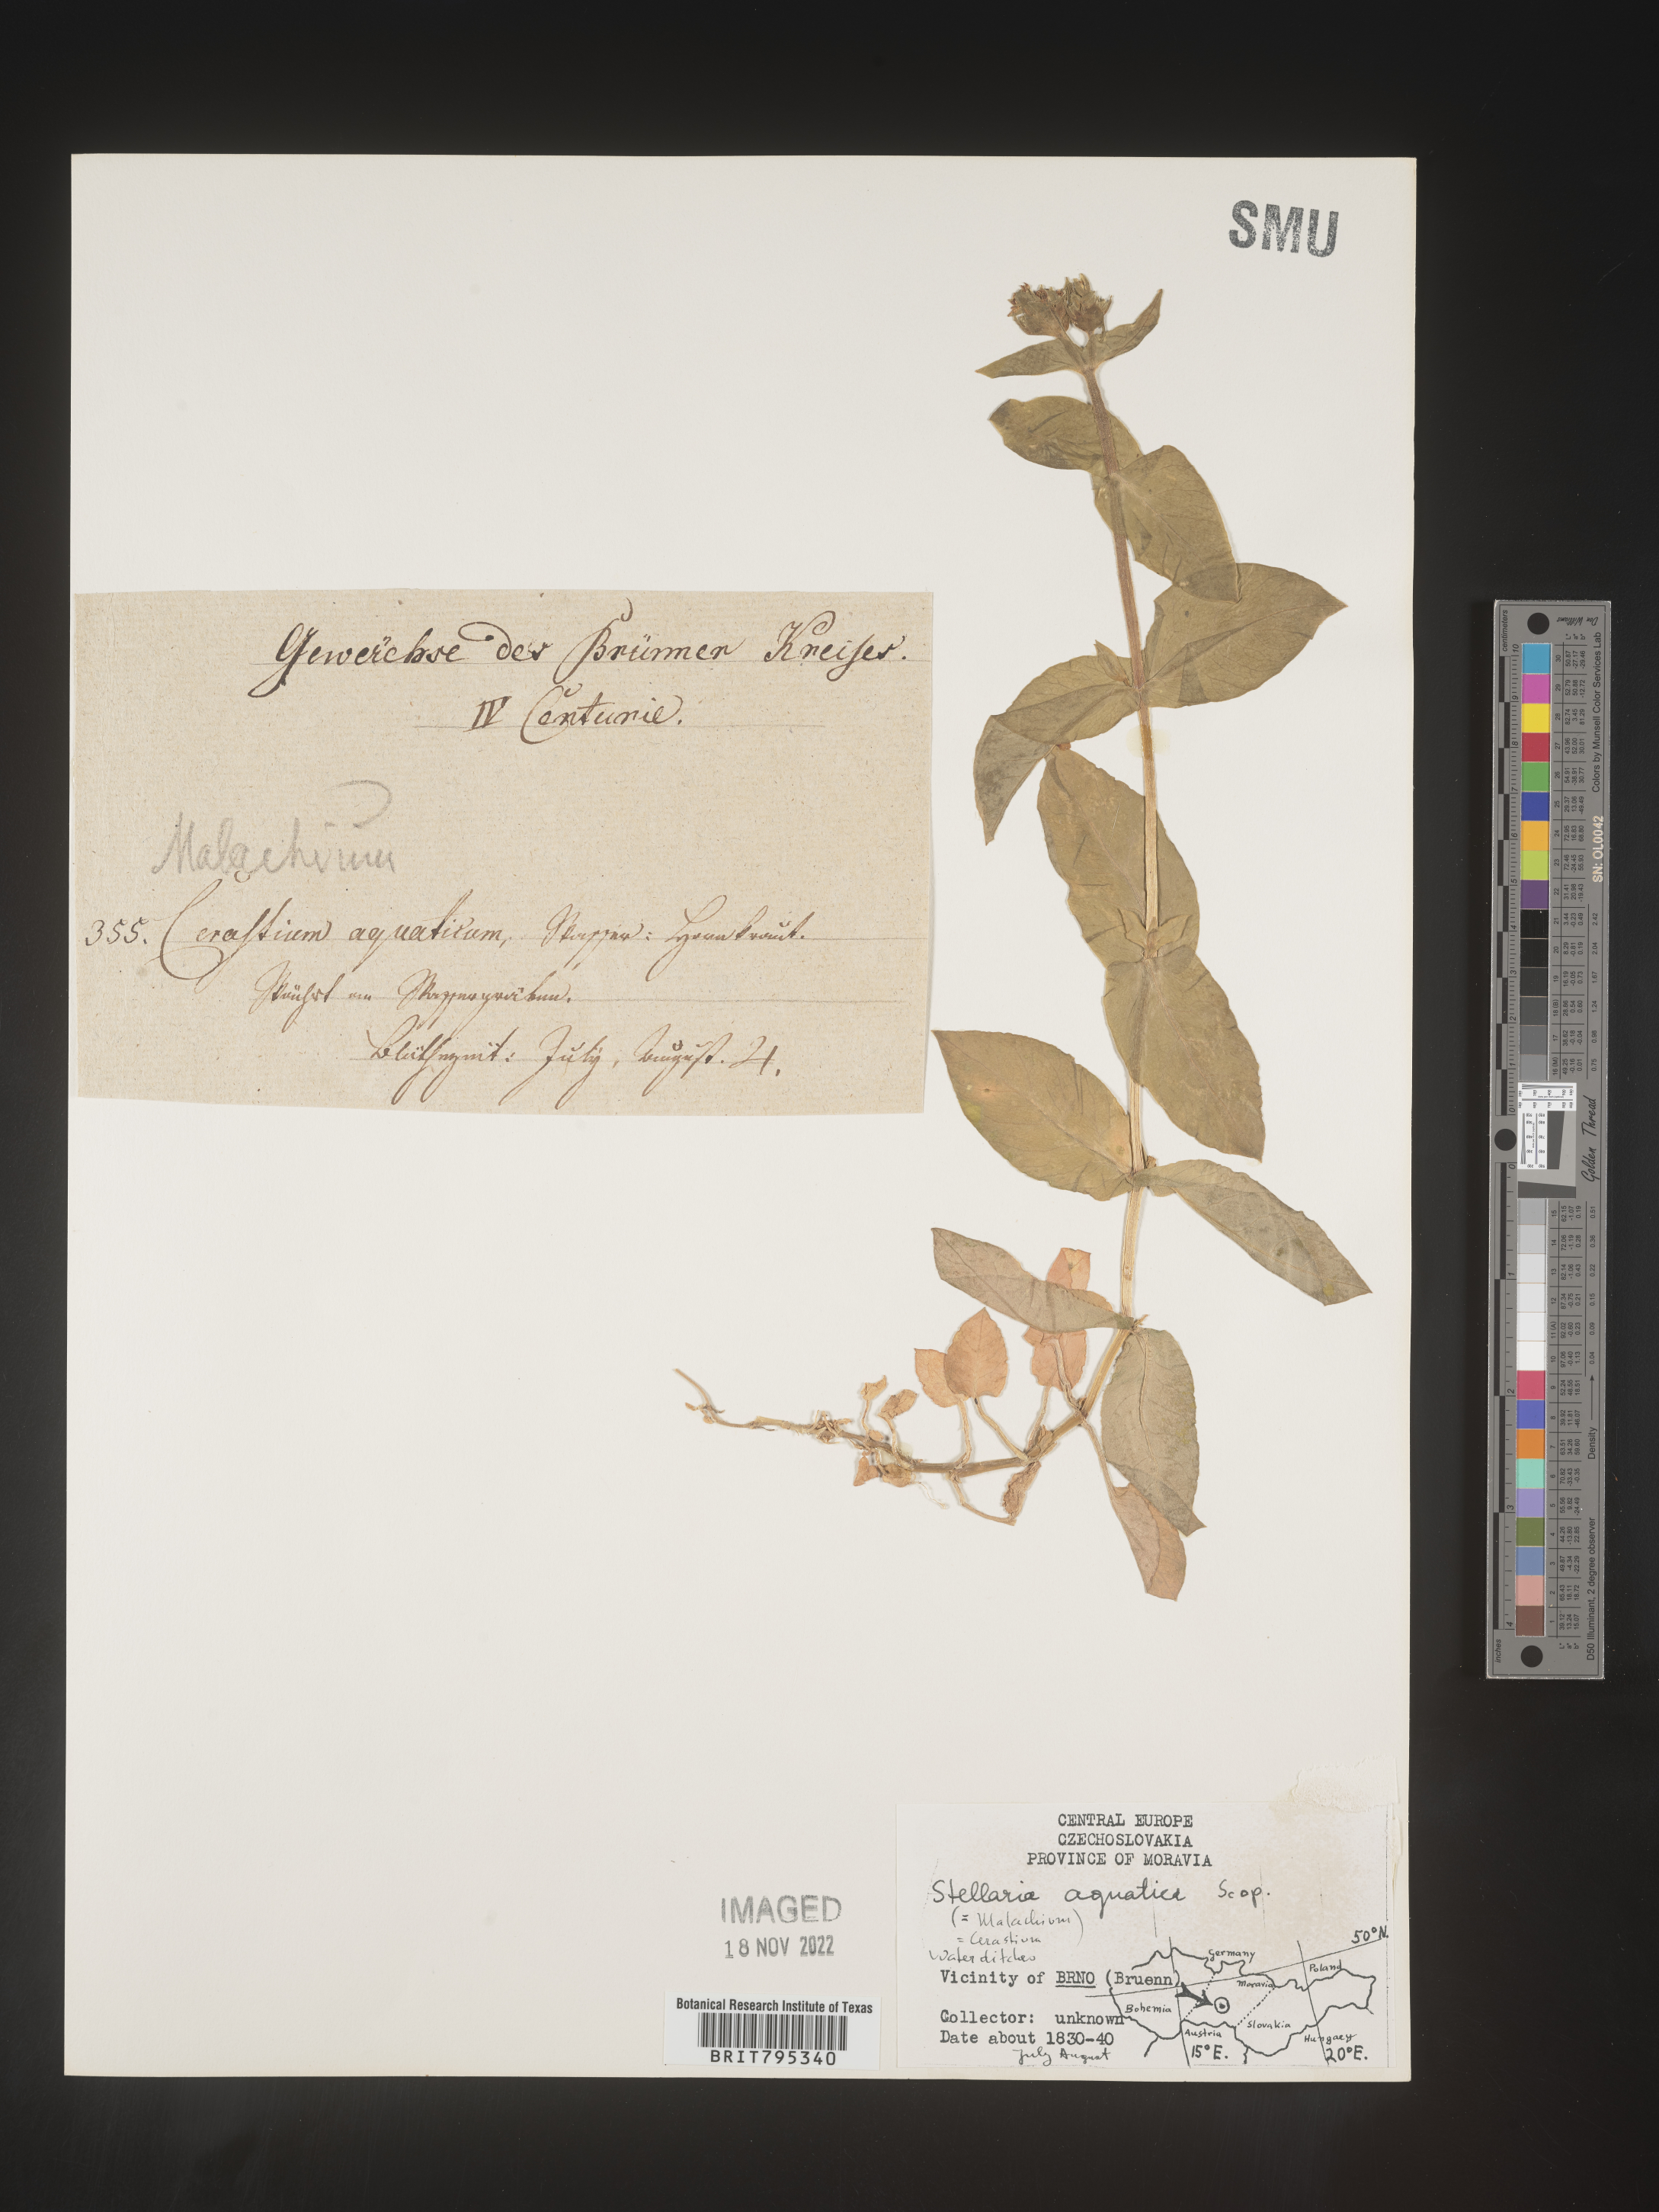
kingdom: Plantae
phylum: Tracheophyta
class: Magnoliopsida
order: Caryophyllales
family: Caryophyllaceae
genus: Stellaria
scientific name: Stellaria
